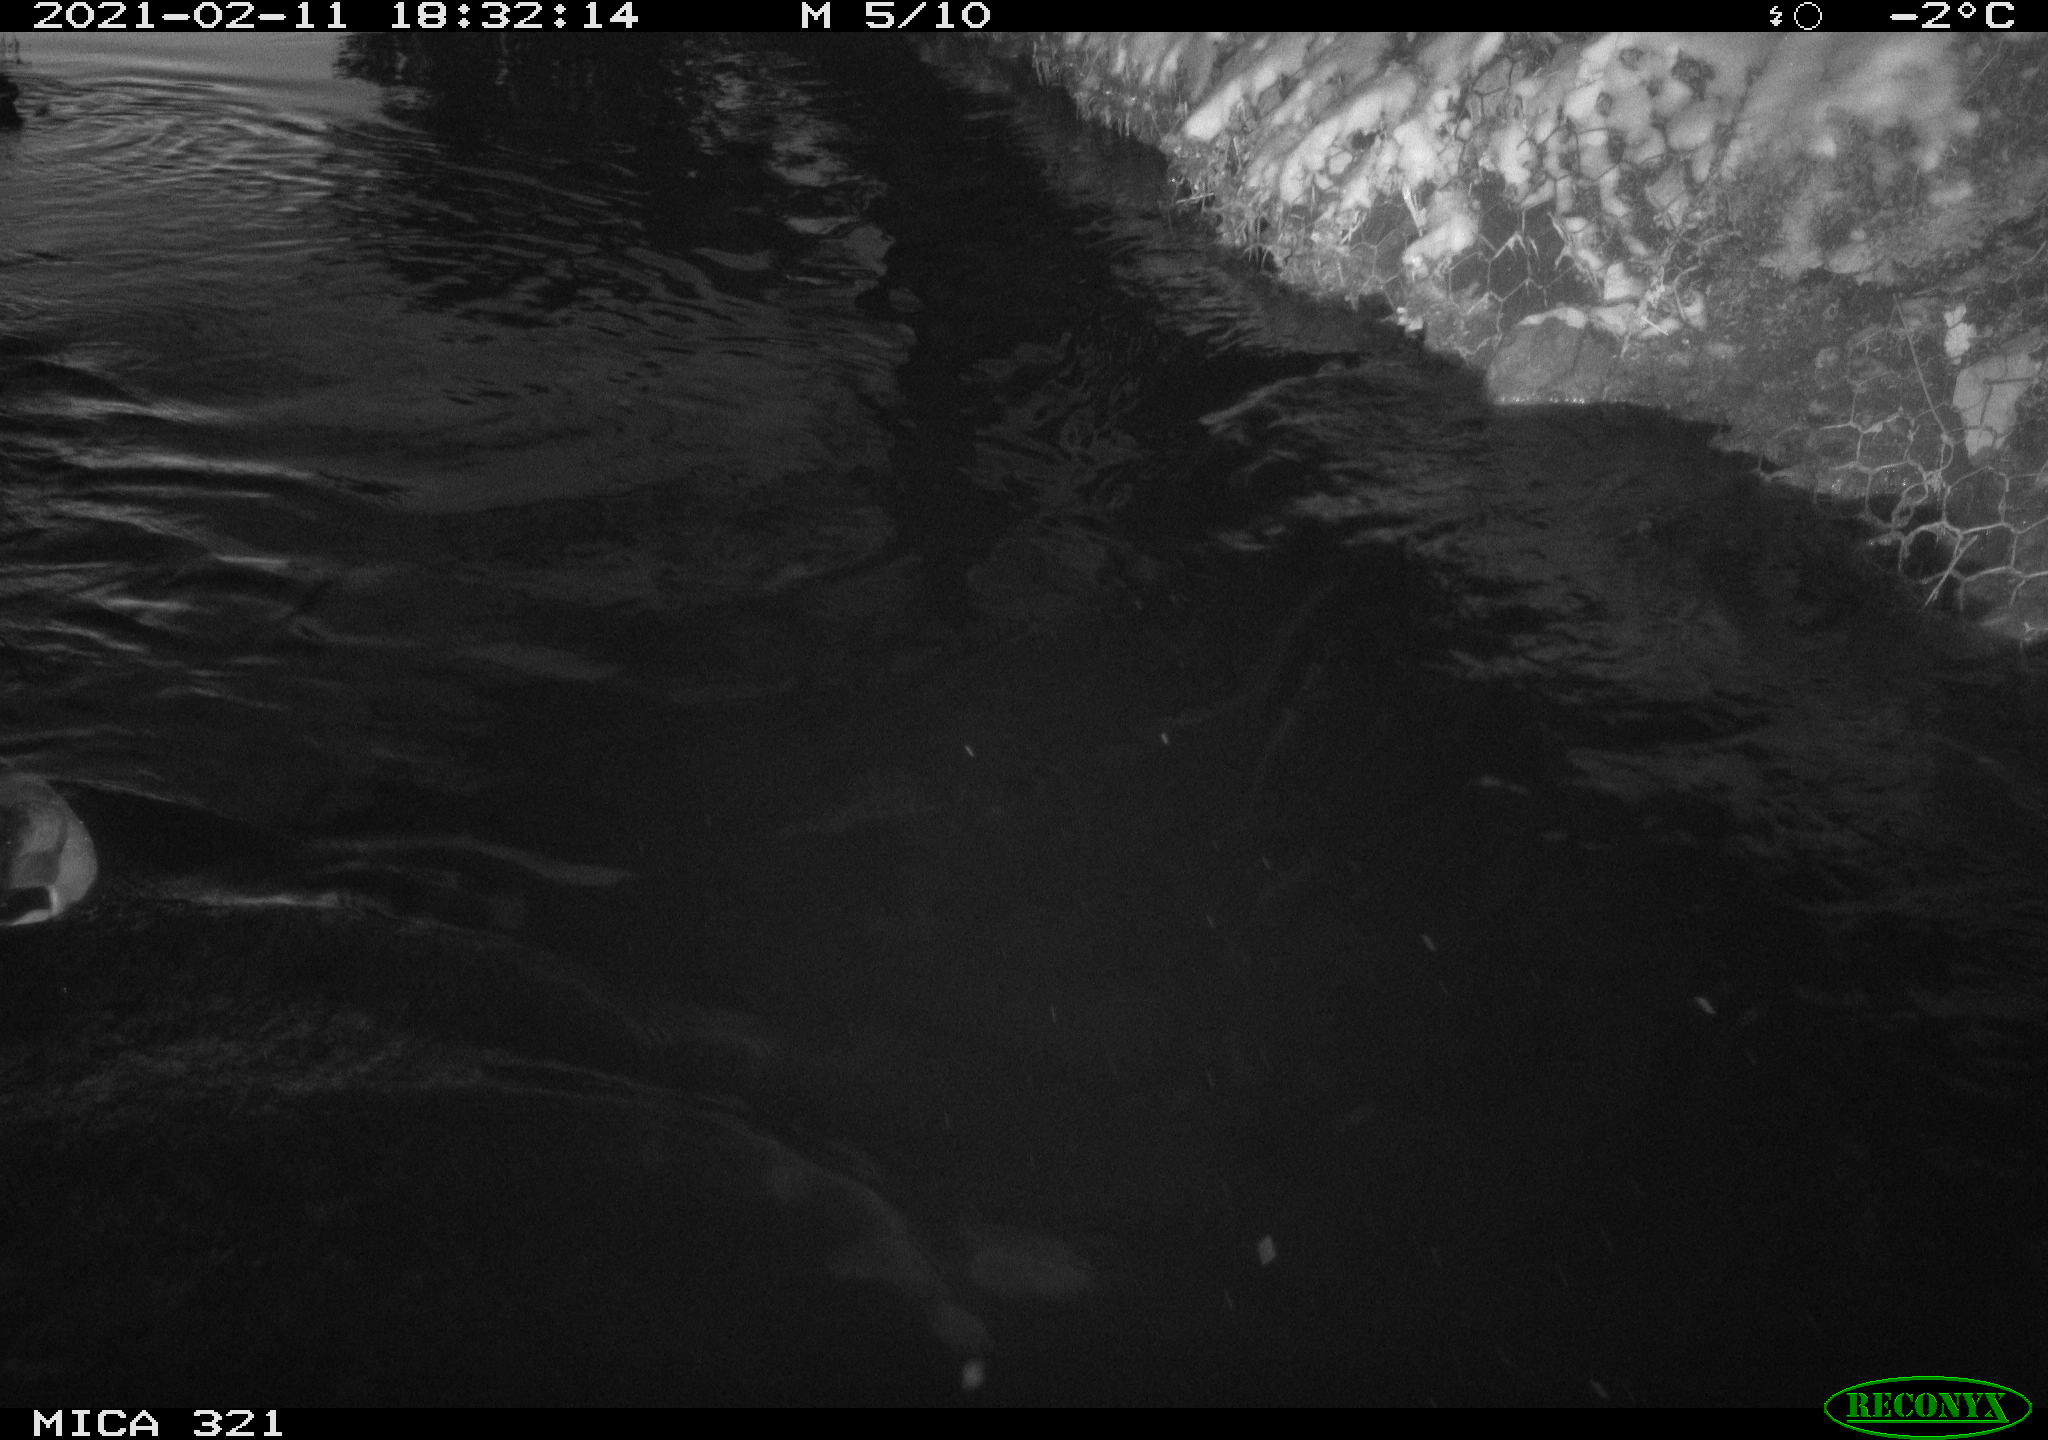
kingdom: Animalia
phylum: Chordata
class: Aves
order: Anseriformes
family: Anatidae
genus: Anas
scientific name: Anas platyrhynchos
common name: Mallard
